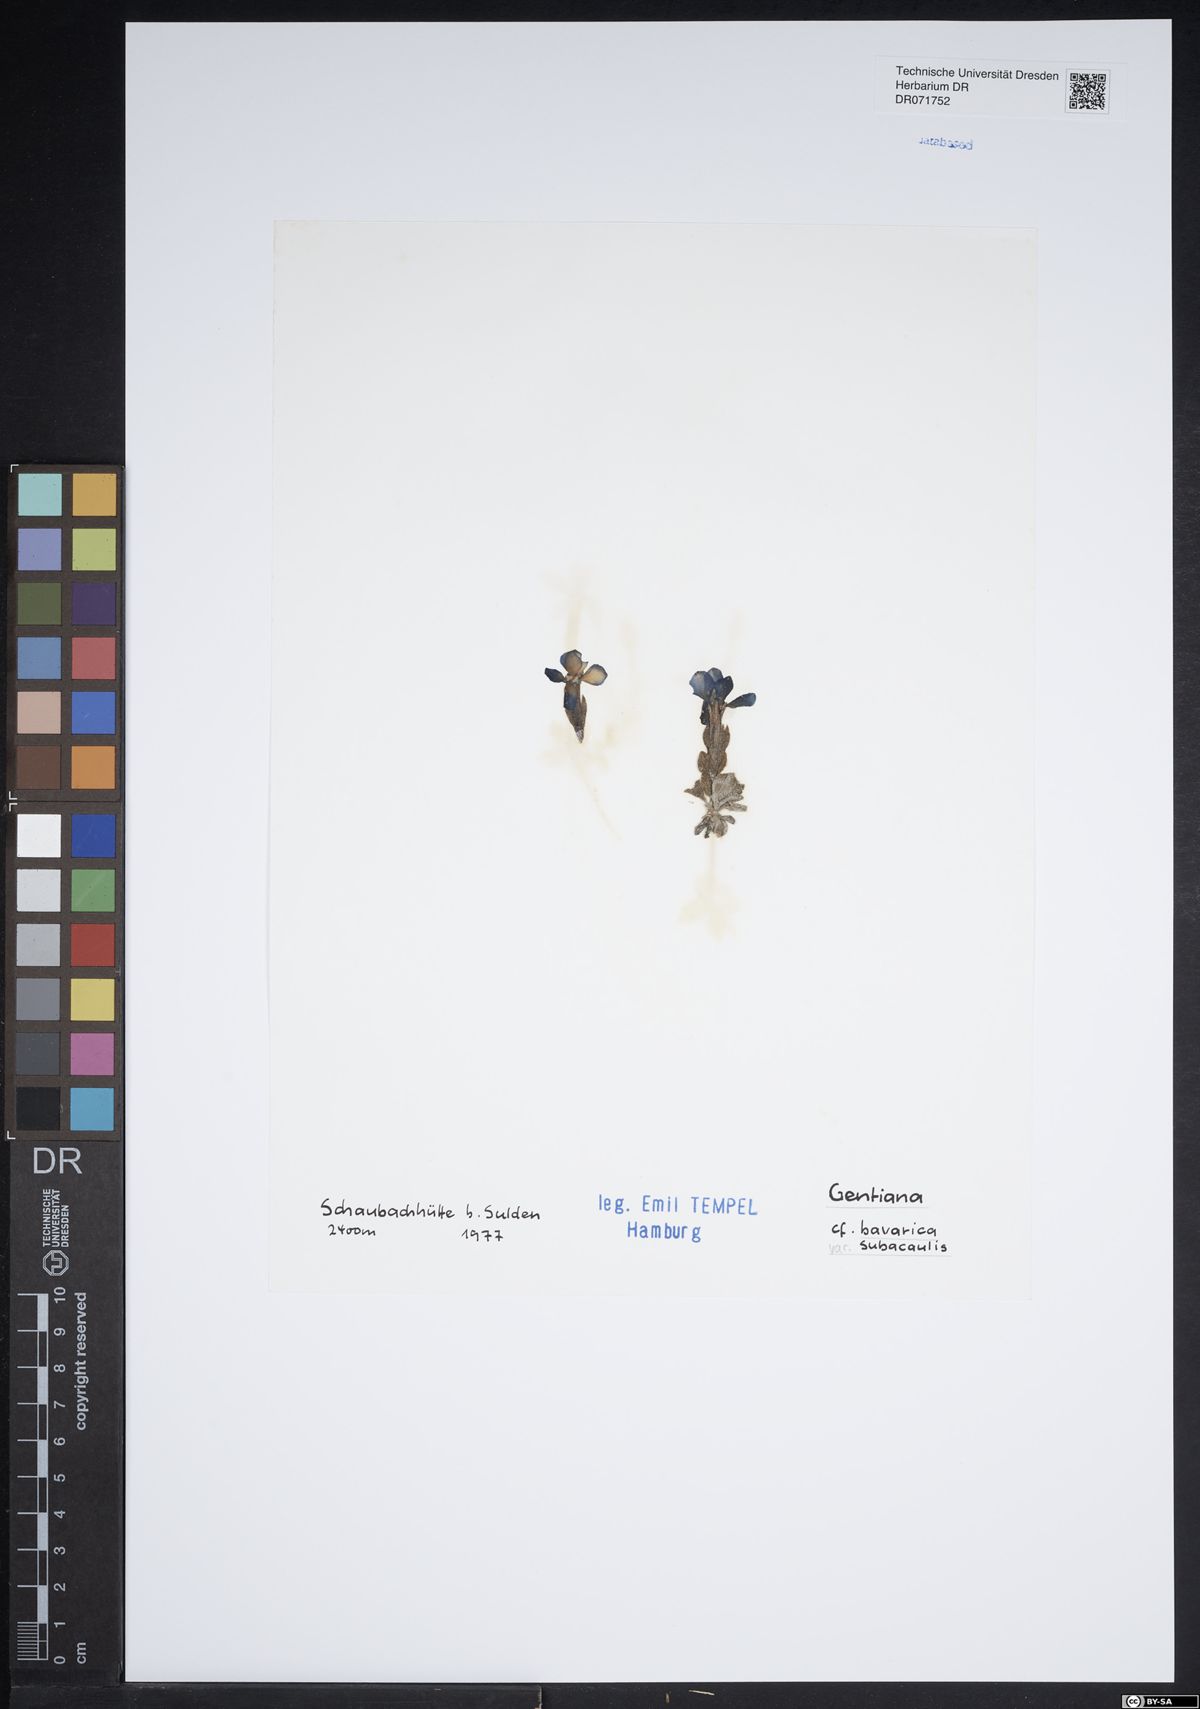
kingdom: Plantae
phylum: Tracheophyta
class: Magnoliopsida
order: Gentianales
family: Gentianaceae
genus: Gentiana
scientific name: Gentiana bavarica
